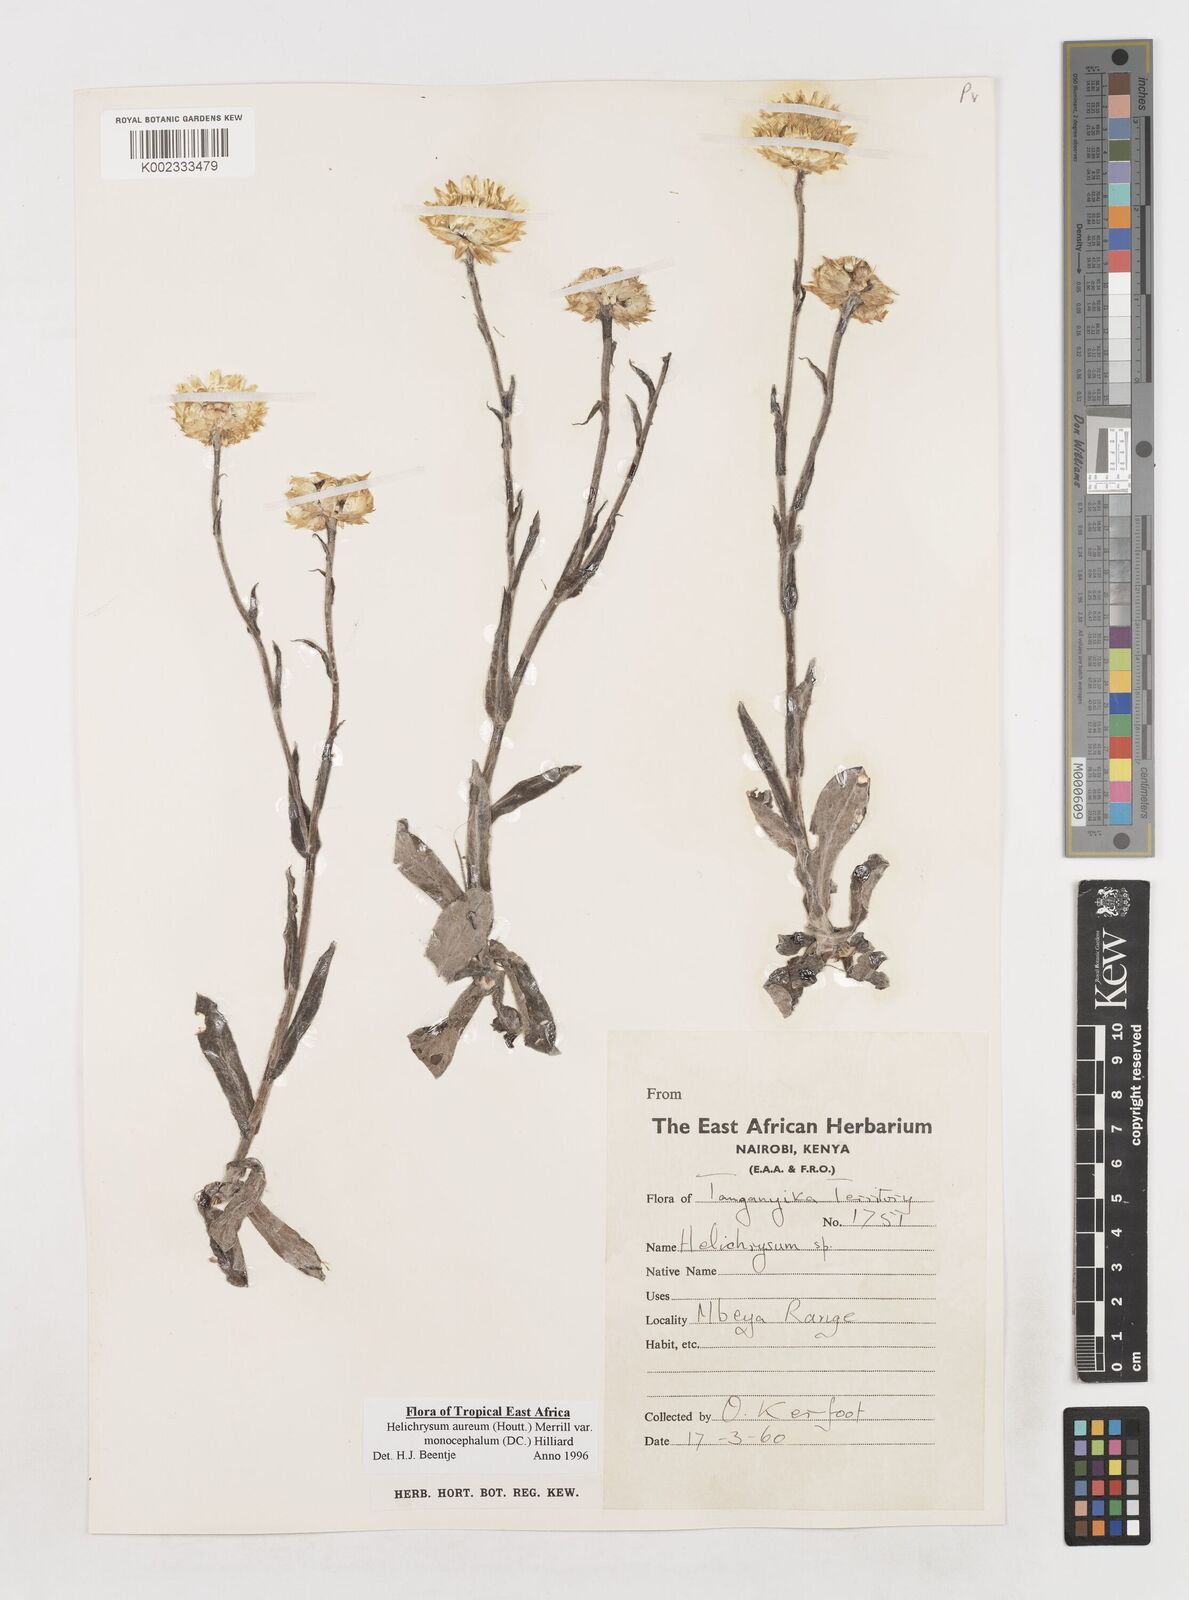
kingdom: Plantae
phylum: Tracheophyta
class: Magnoliopsida
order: Asterales
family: Asteraceae
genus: Helichrysum
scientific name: Helichrysum aureum
